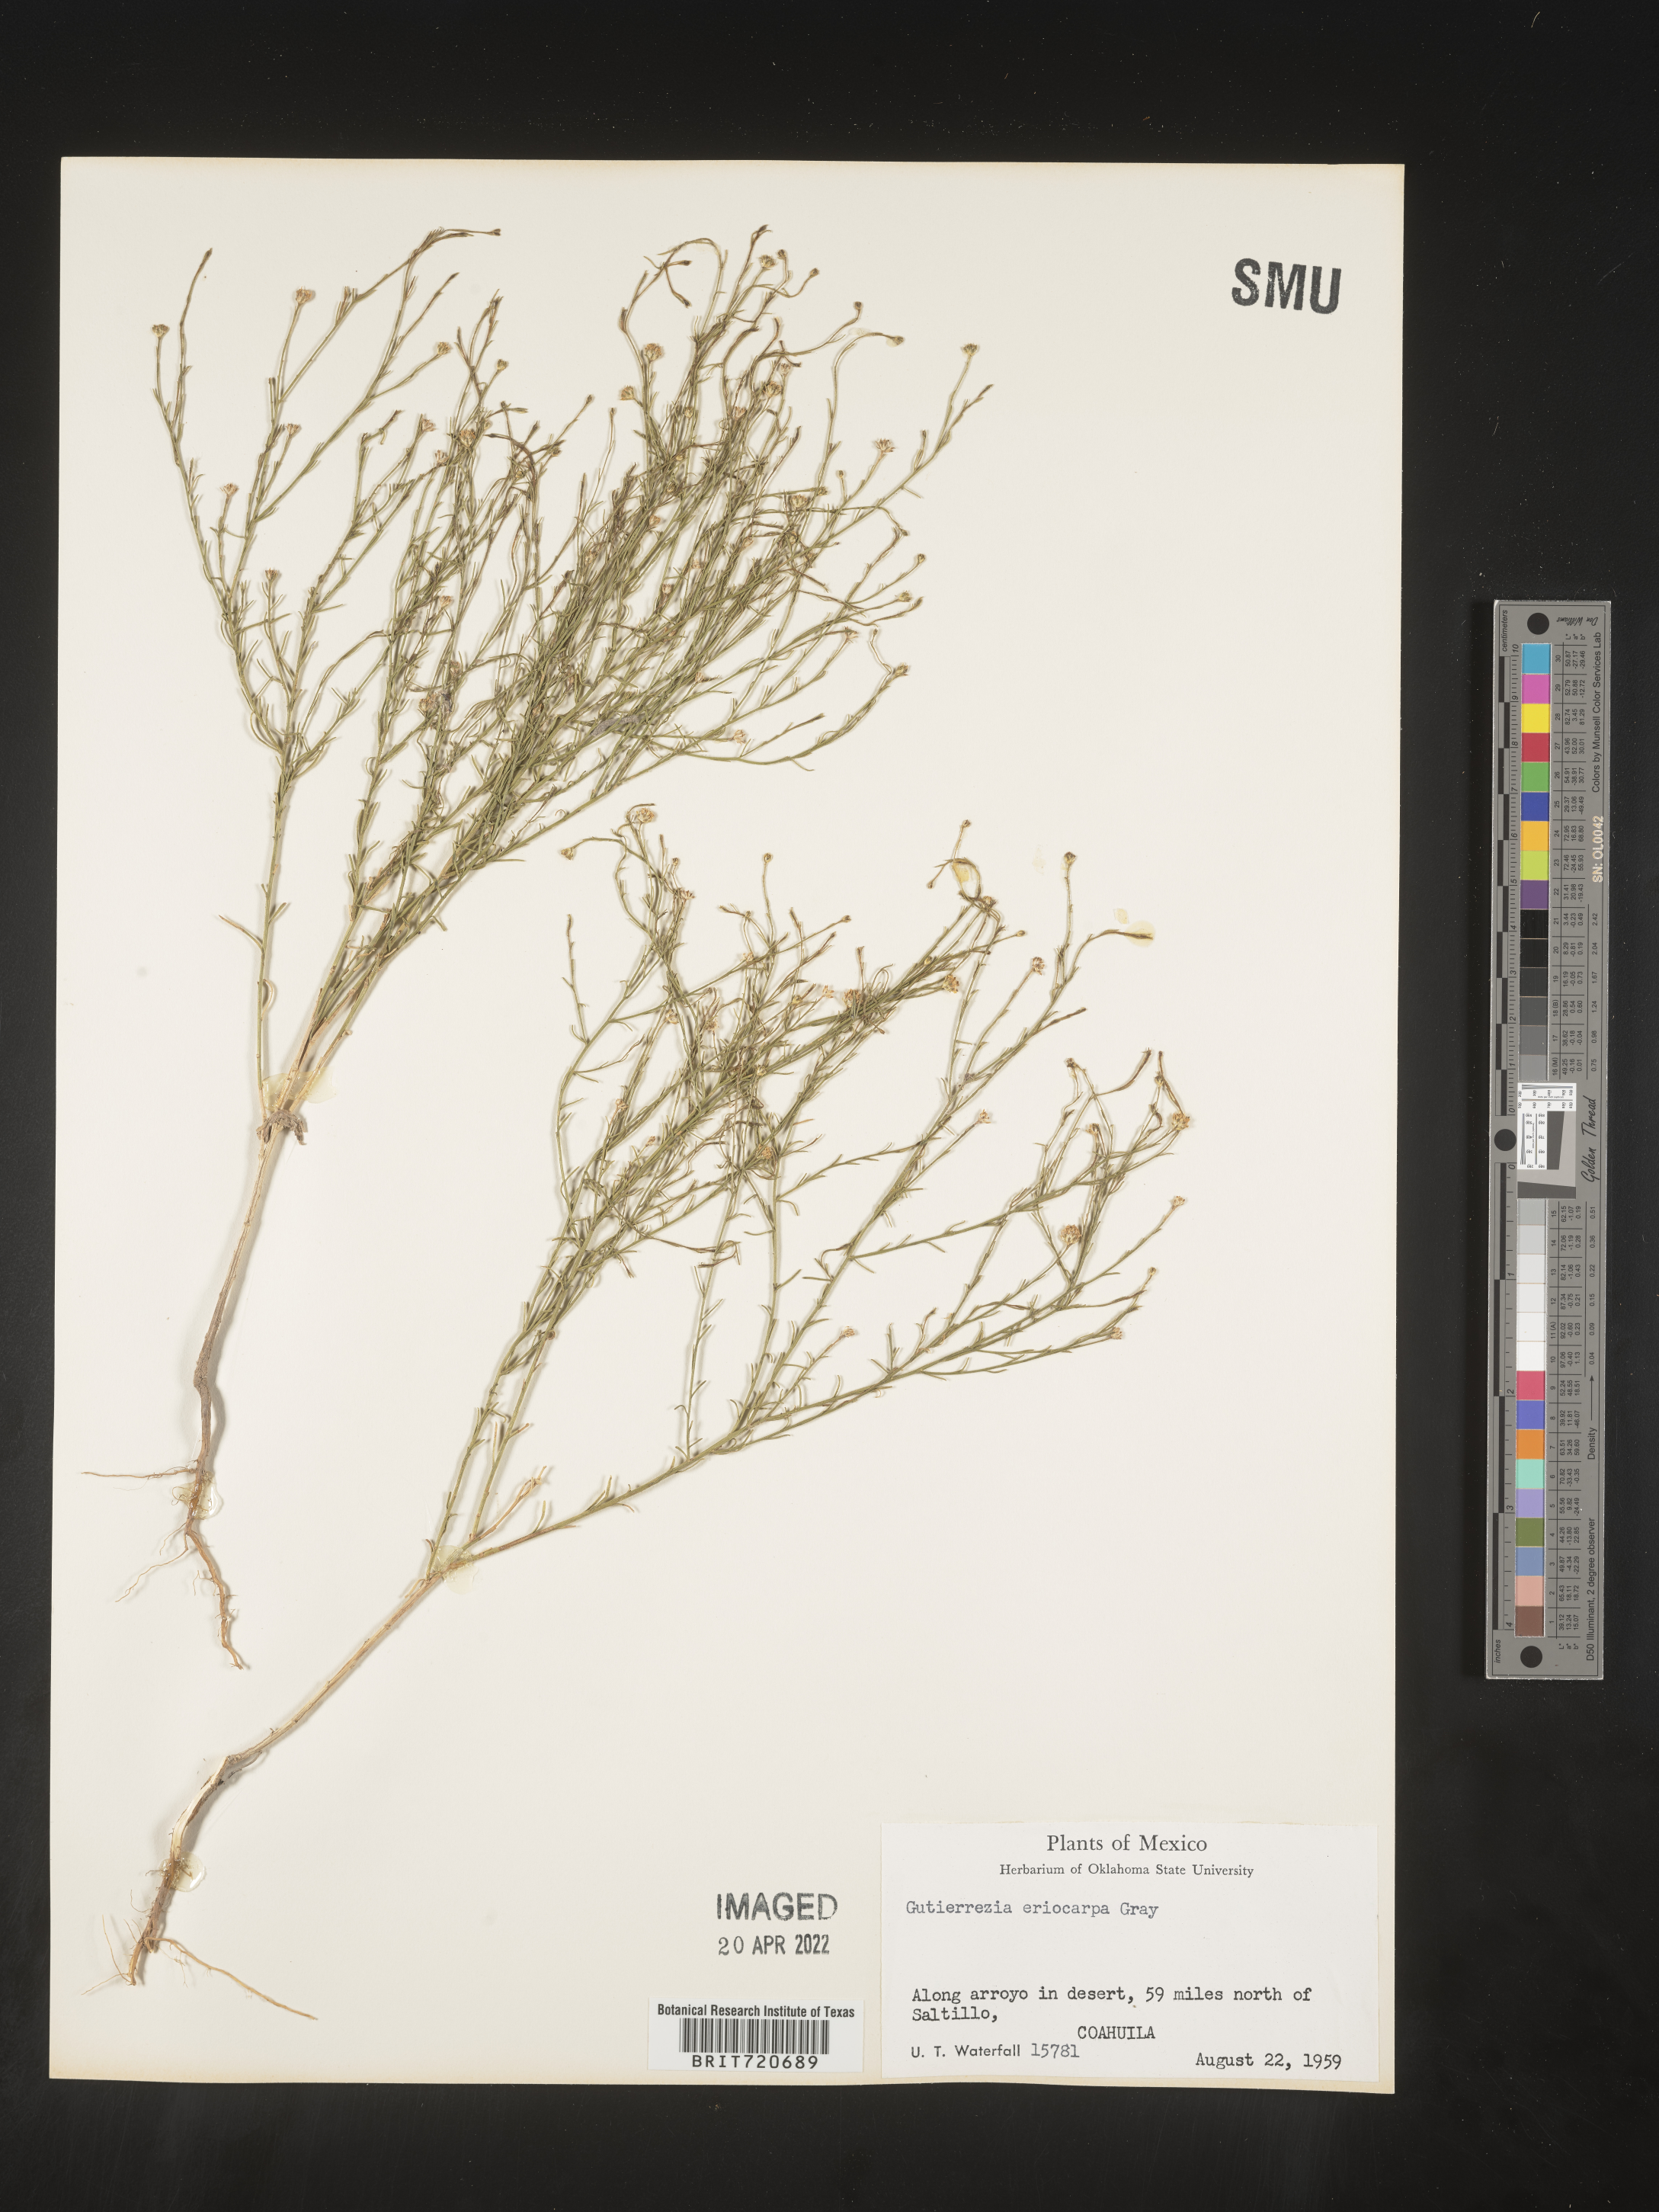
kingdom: Plantae
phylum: Tracheophyta
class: Magnoliopsida
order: Asterales
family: Asteraceae
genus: Gutierrezia
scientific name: Gutierrezia sphaerocephala
